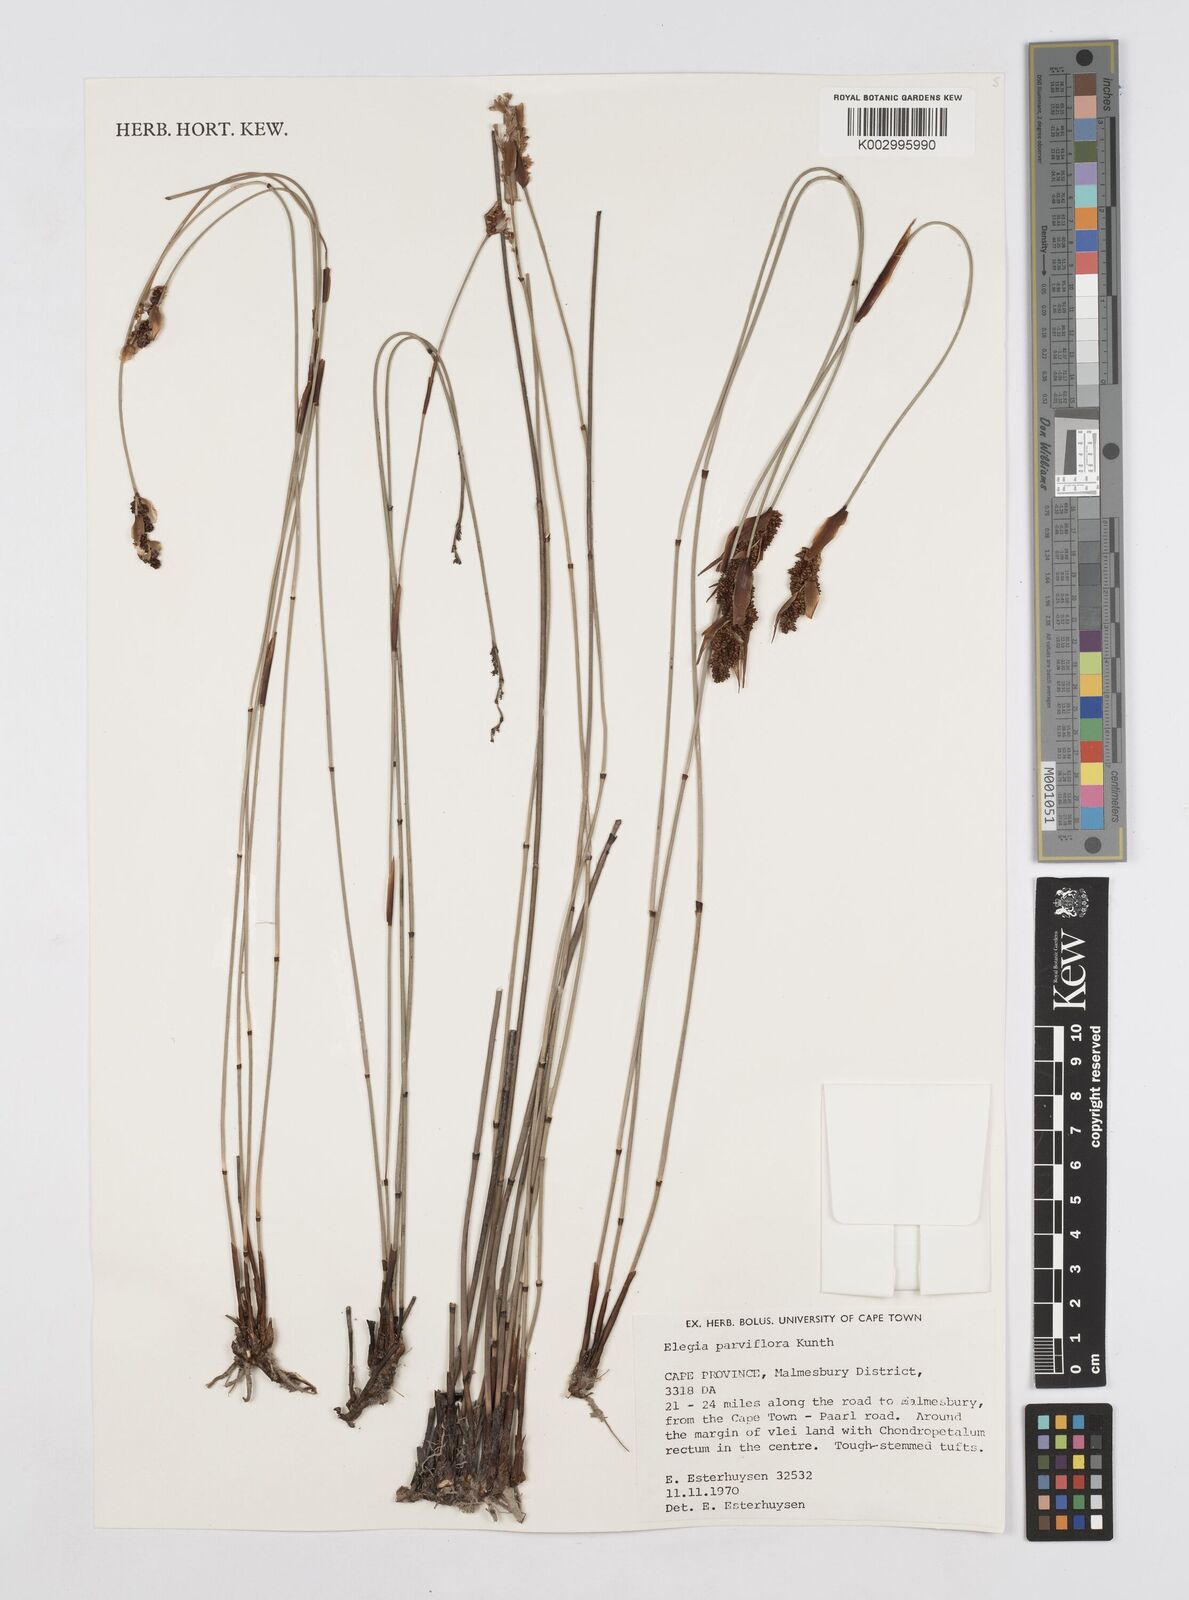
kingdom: Plantae
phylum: Tracheophyta
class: Liliopsida
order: Poales
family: Restionaceae
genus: Cannomois
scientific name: Cannomois parviflora
